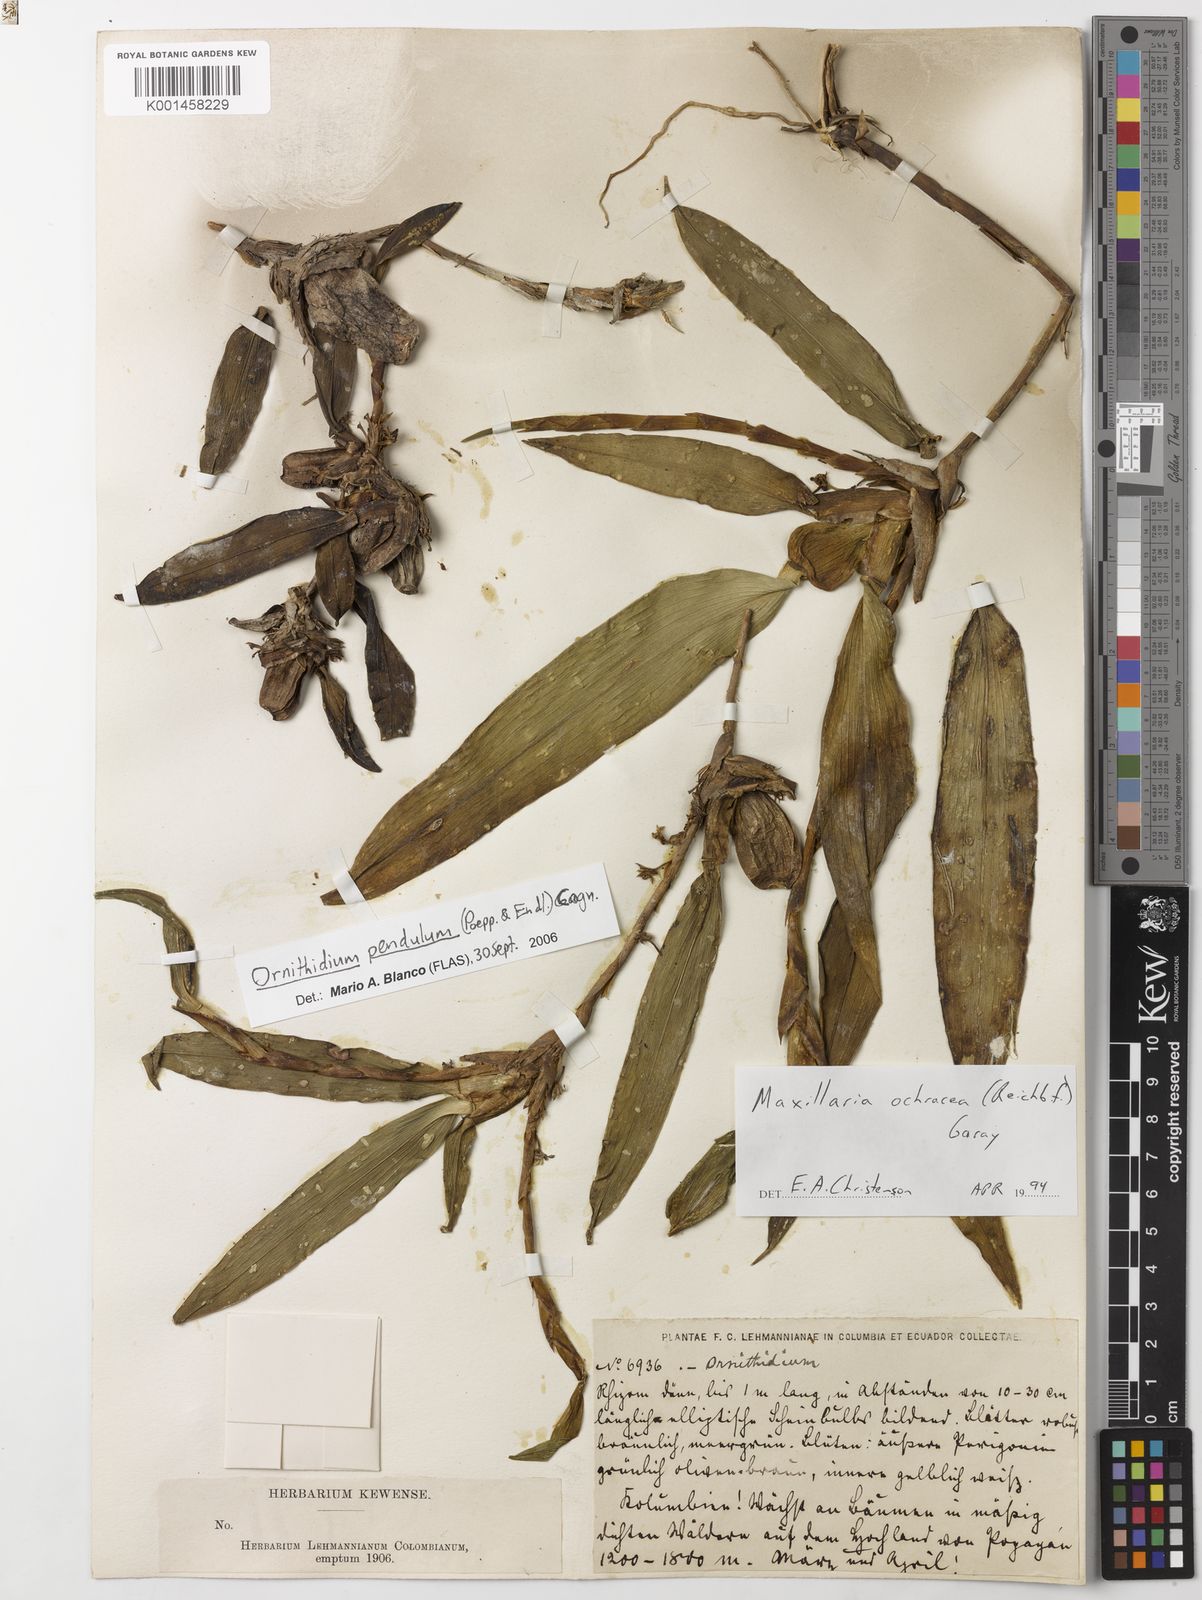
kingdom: Plantae
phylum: Tracheophyta
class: Liliopsida
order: Asparagales
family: Orchidaceae
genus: Maxillaria
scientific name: Maxillaria pendula
